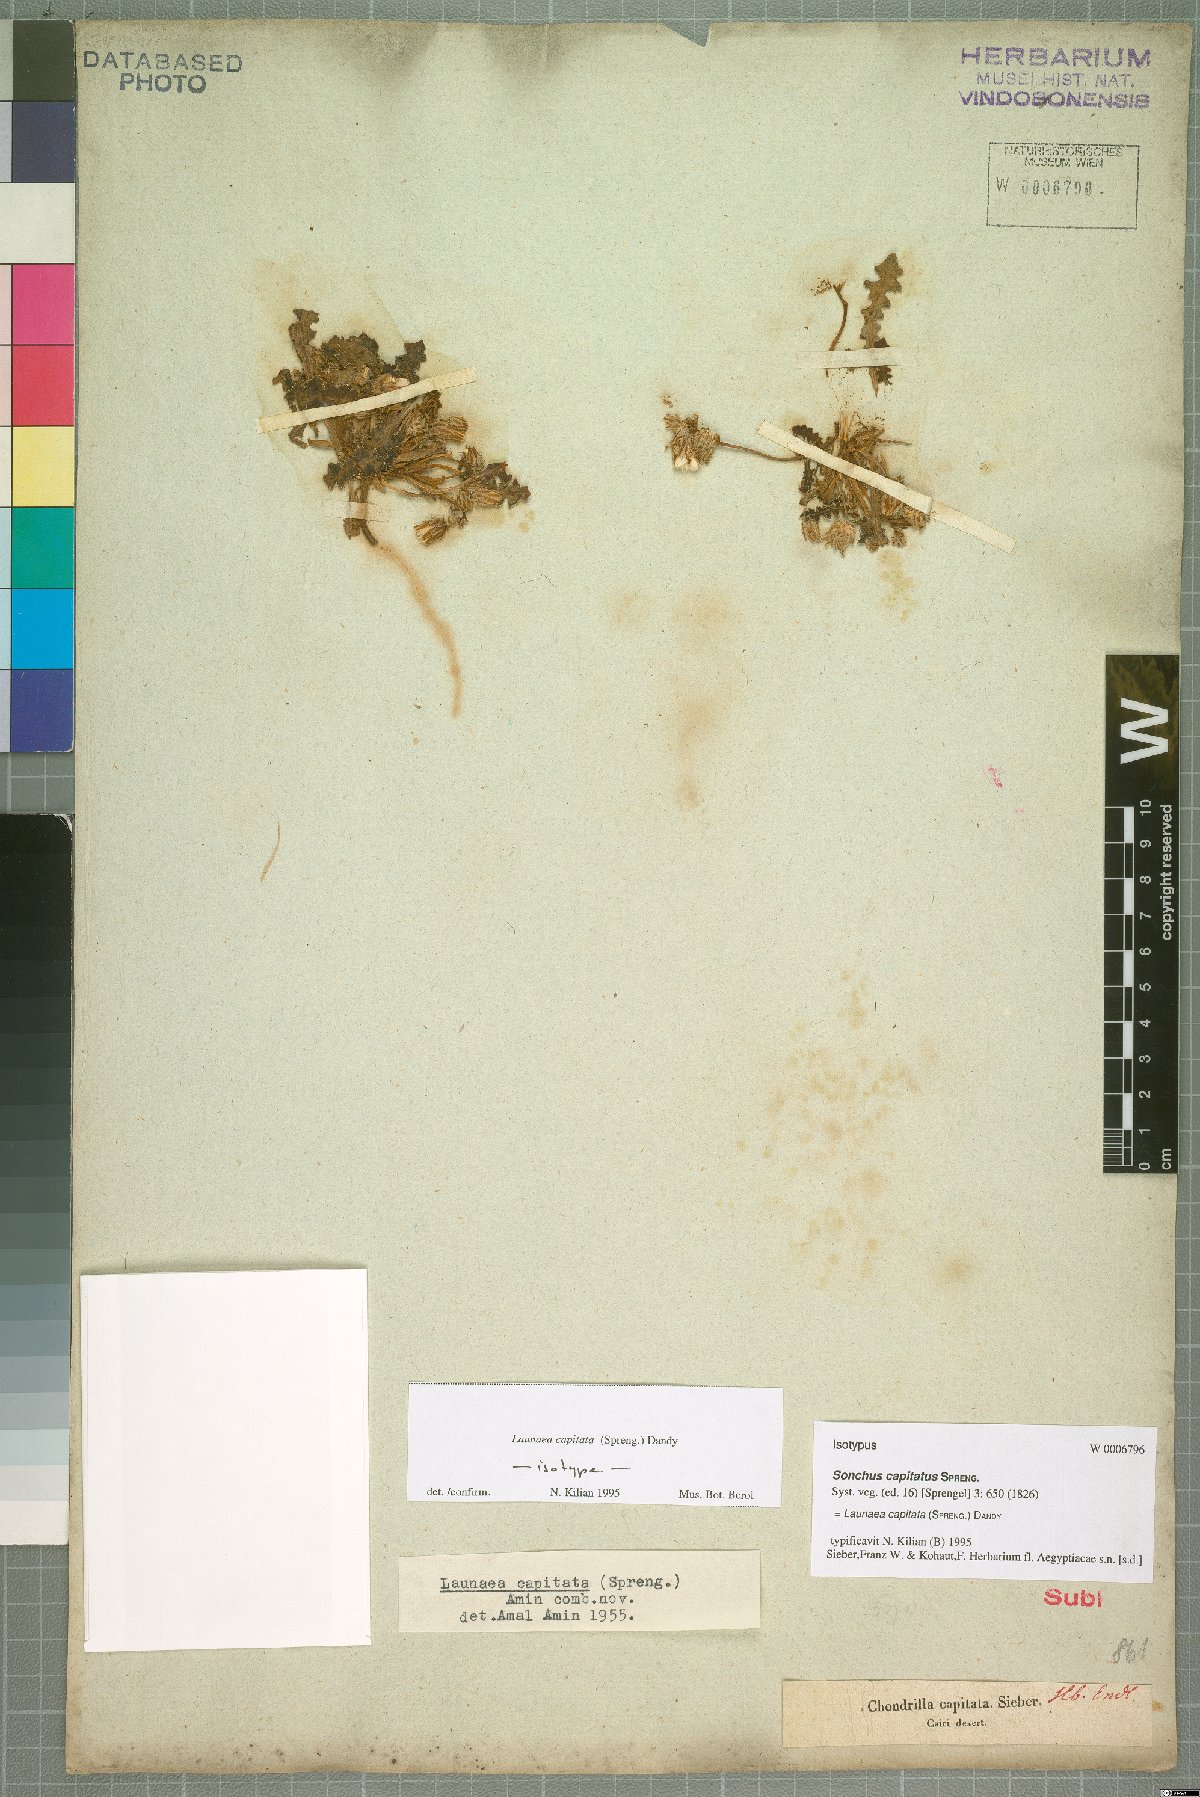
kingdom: Plantae
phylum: Tracheophyta
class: Magnoliopsida
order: Asterales
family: Asteraceae
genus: Launaea
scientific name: Launaea capitata
